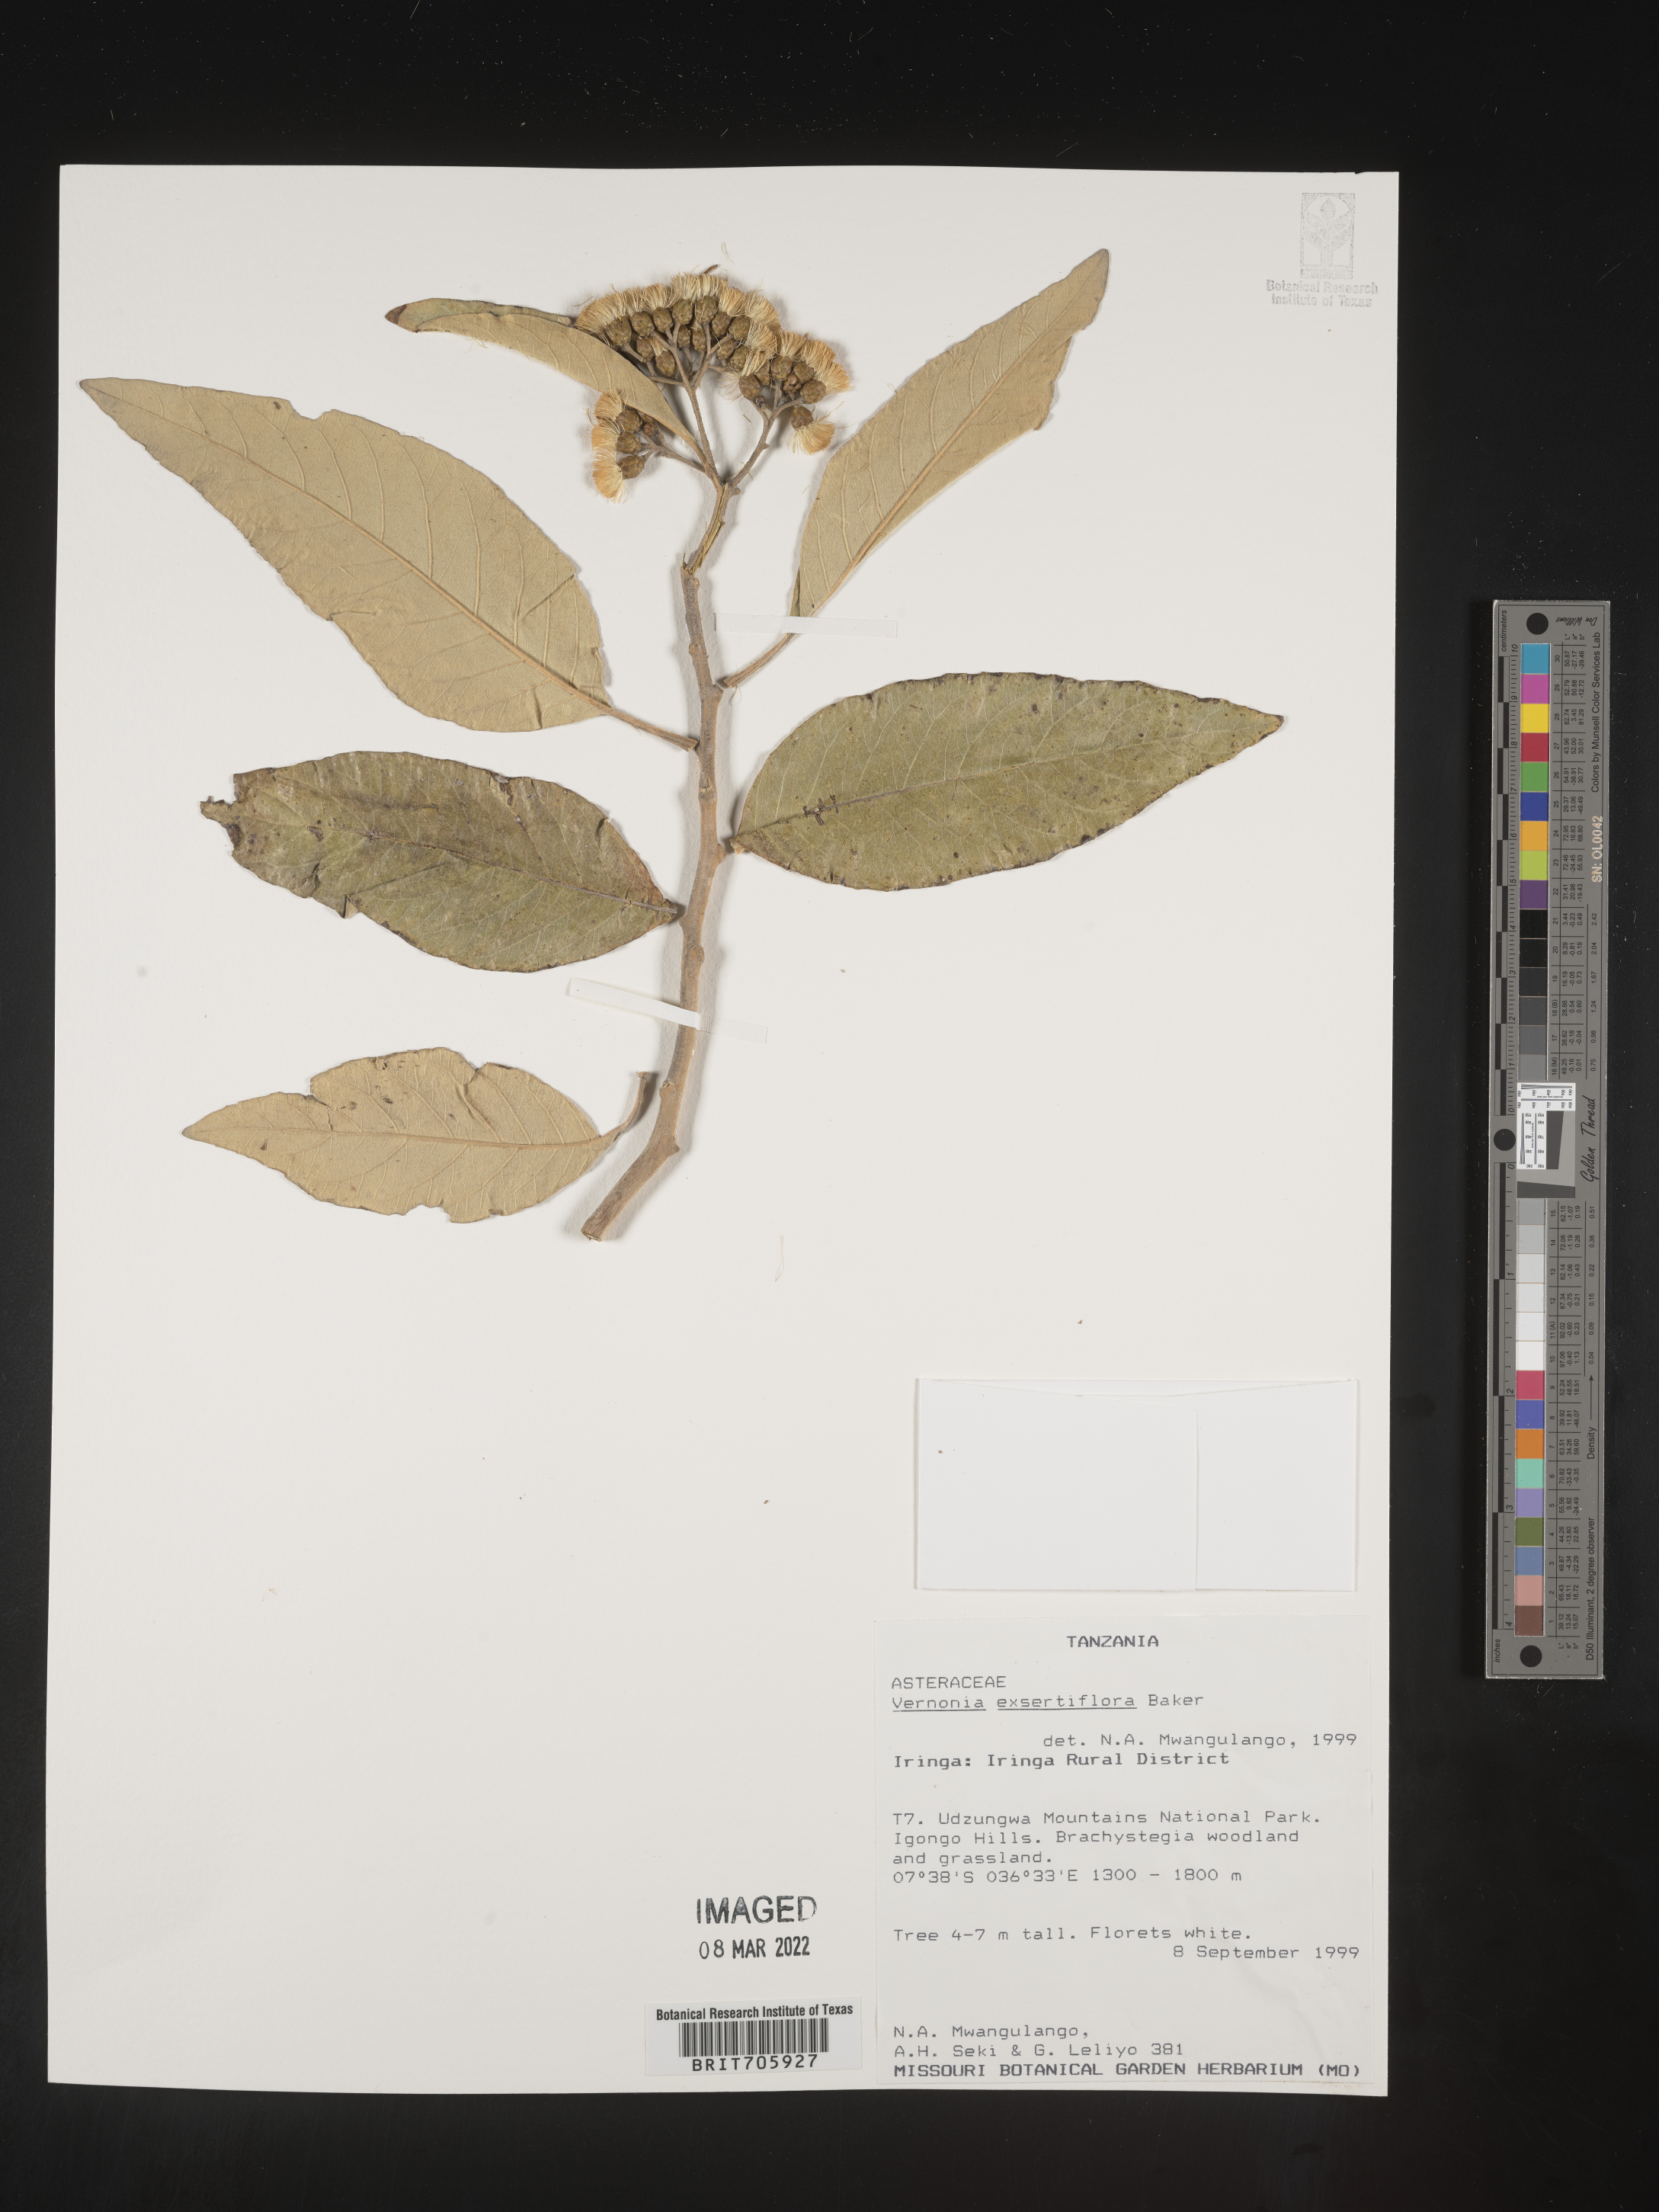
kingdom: Plantae
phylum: Tracheophyta
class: Magnoliopsida
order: Asterales
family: Asteraceae
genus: Vernonia
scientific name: Vernonia
